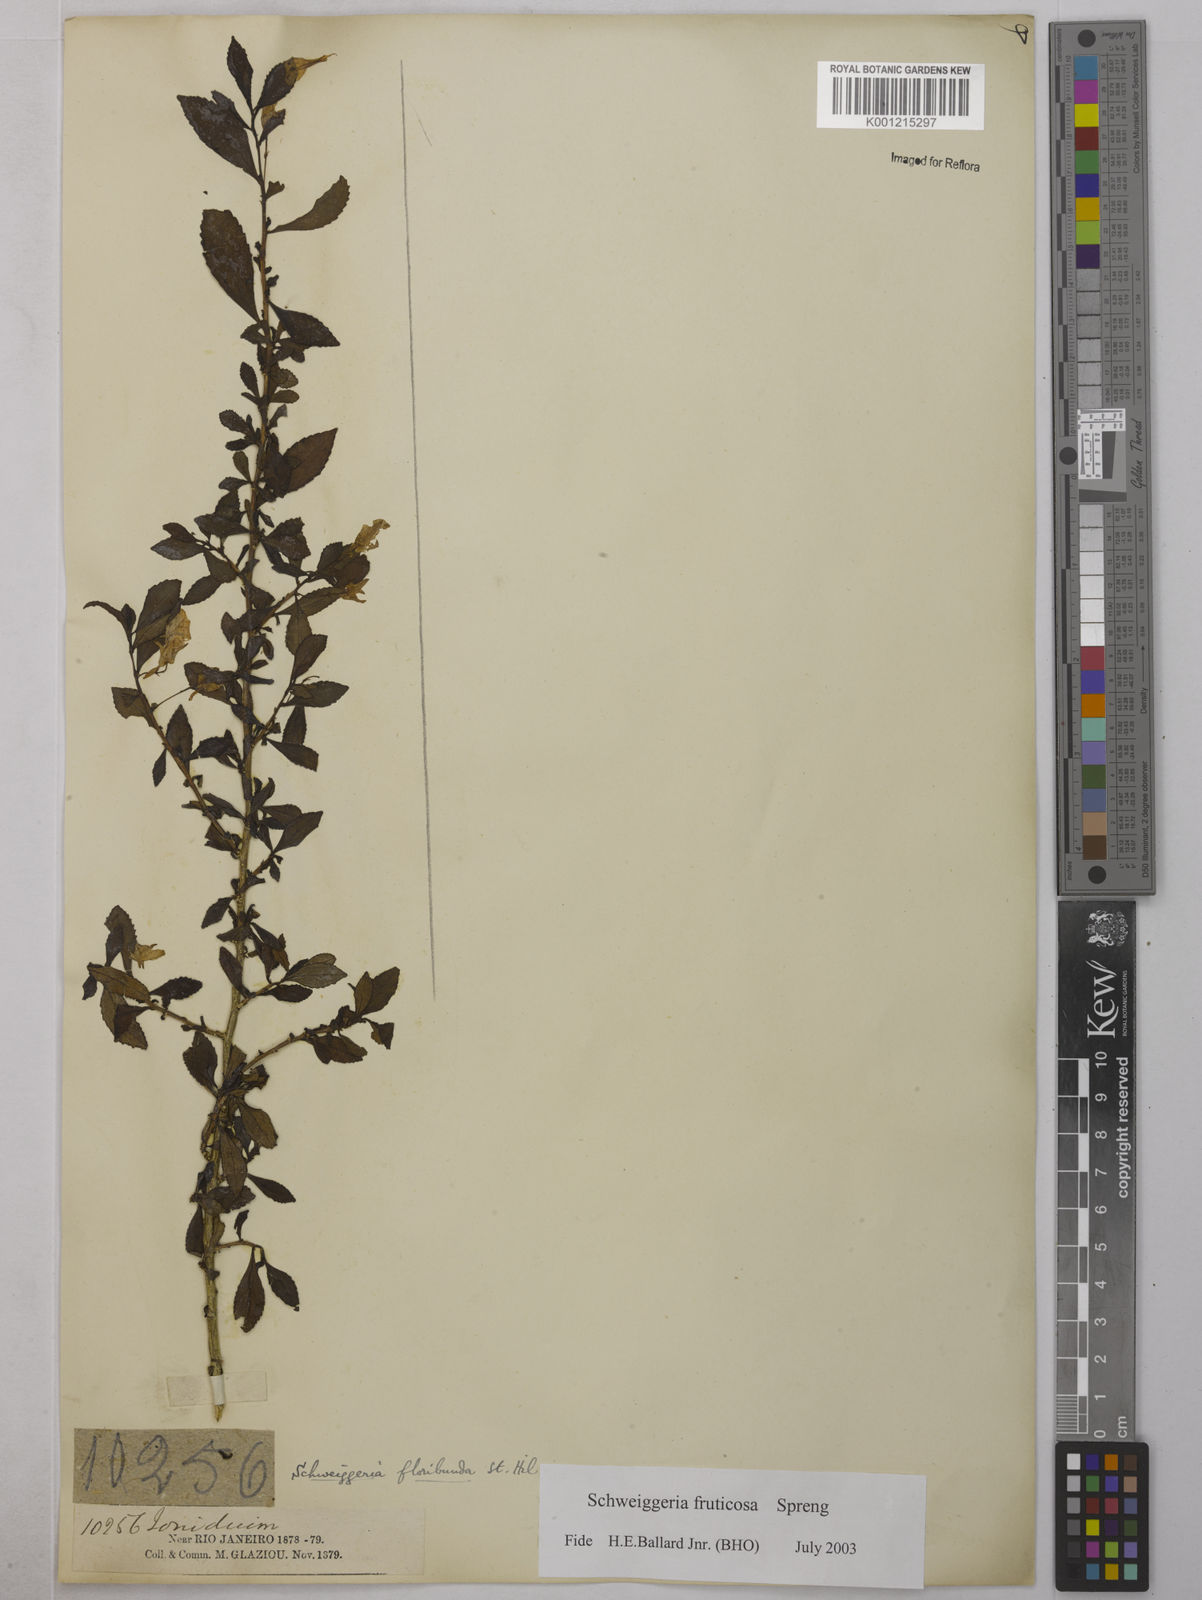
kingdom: Plantae
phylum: Tracheophyta
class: Magnoliopsida
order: Malpighiales
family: Violaceae
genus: Schweiggeria
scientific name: Schweiggeria fruticosa
